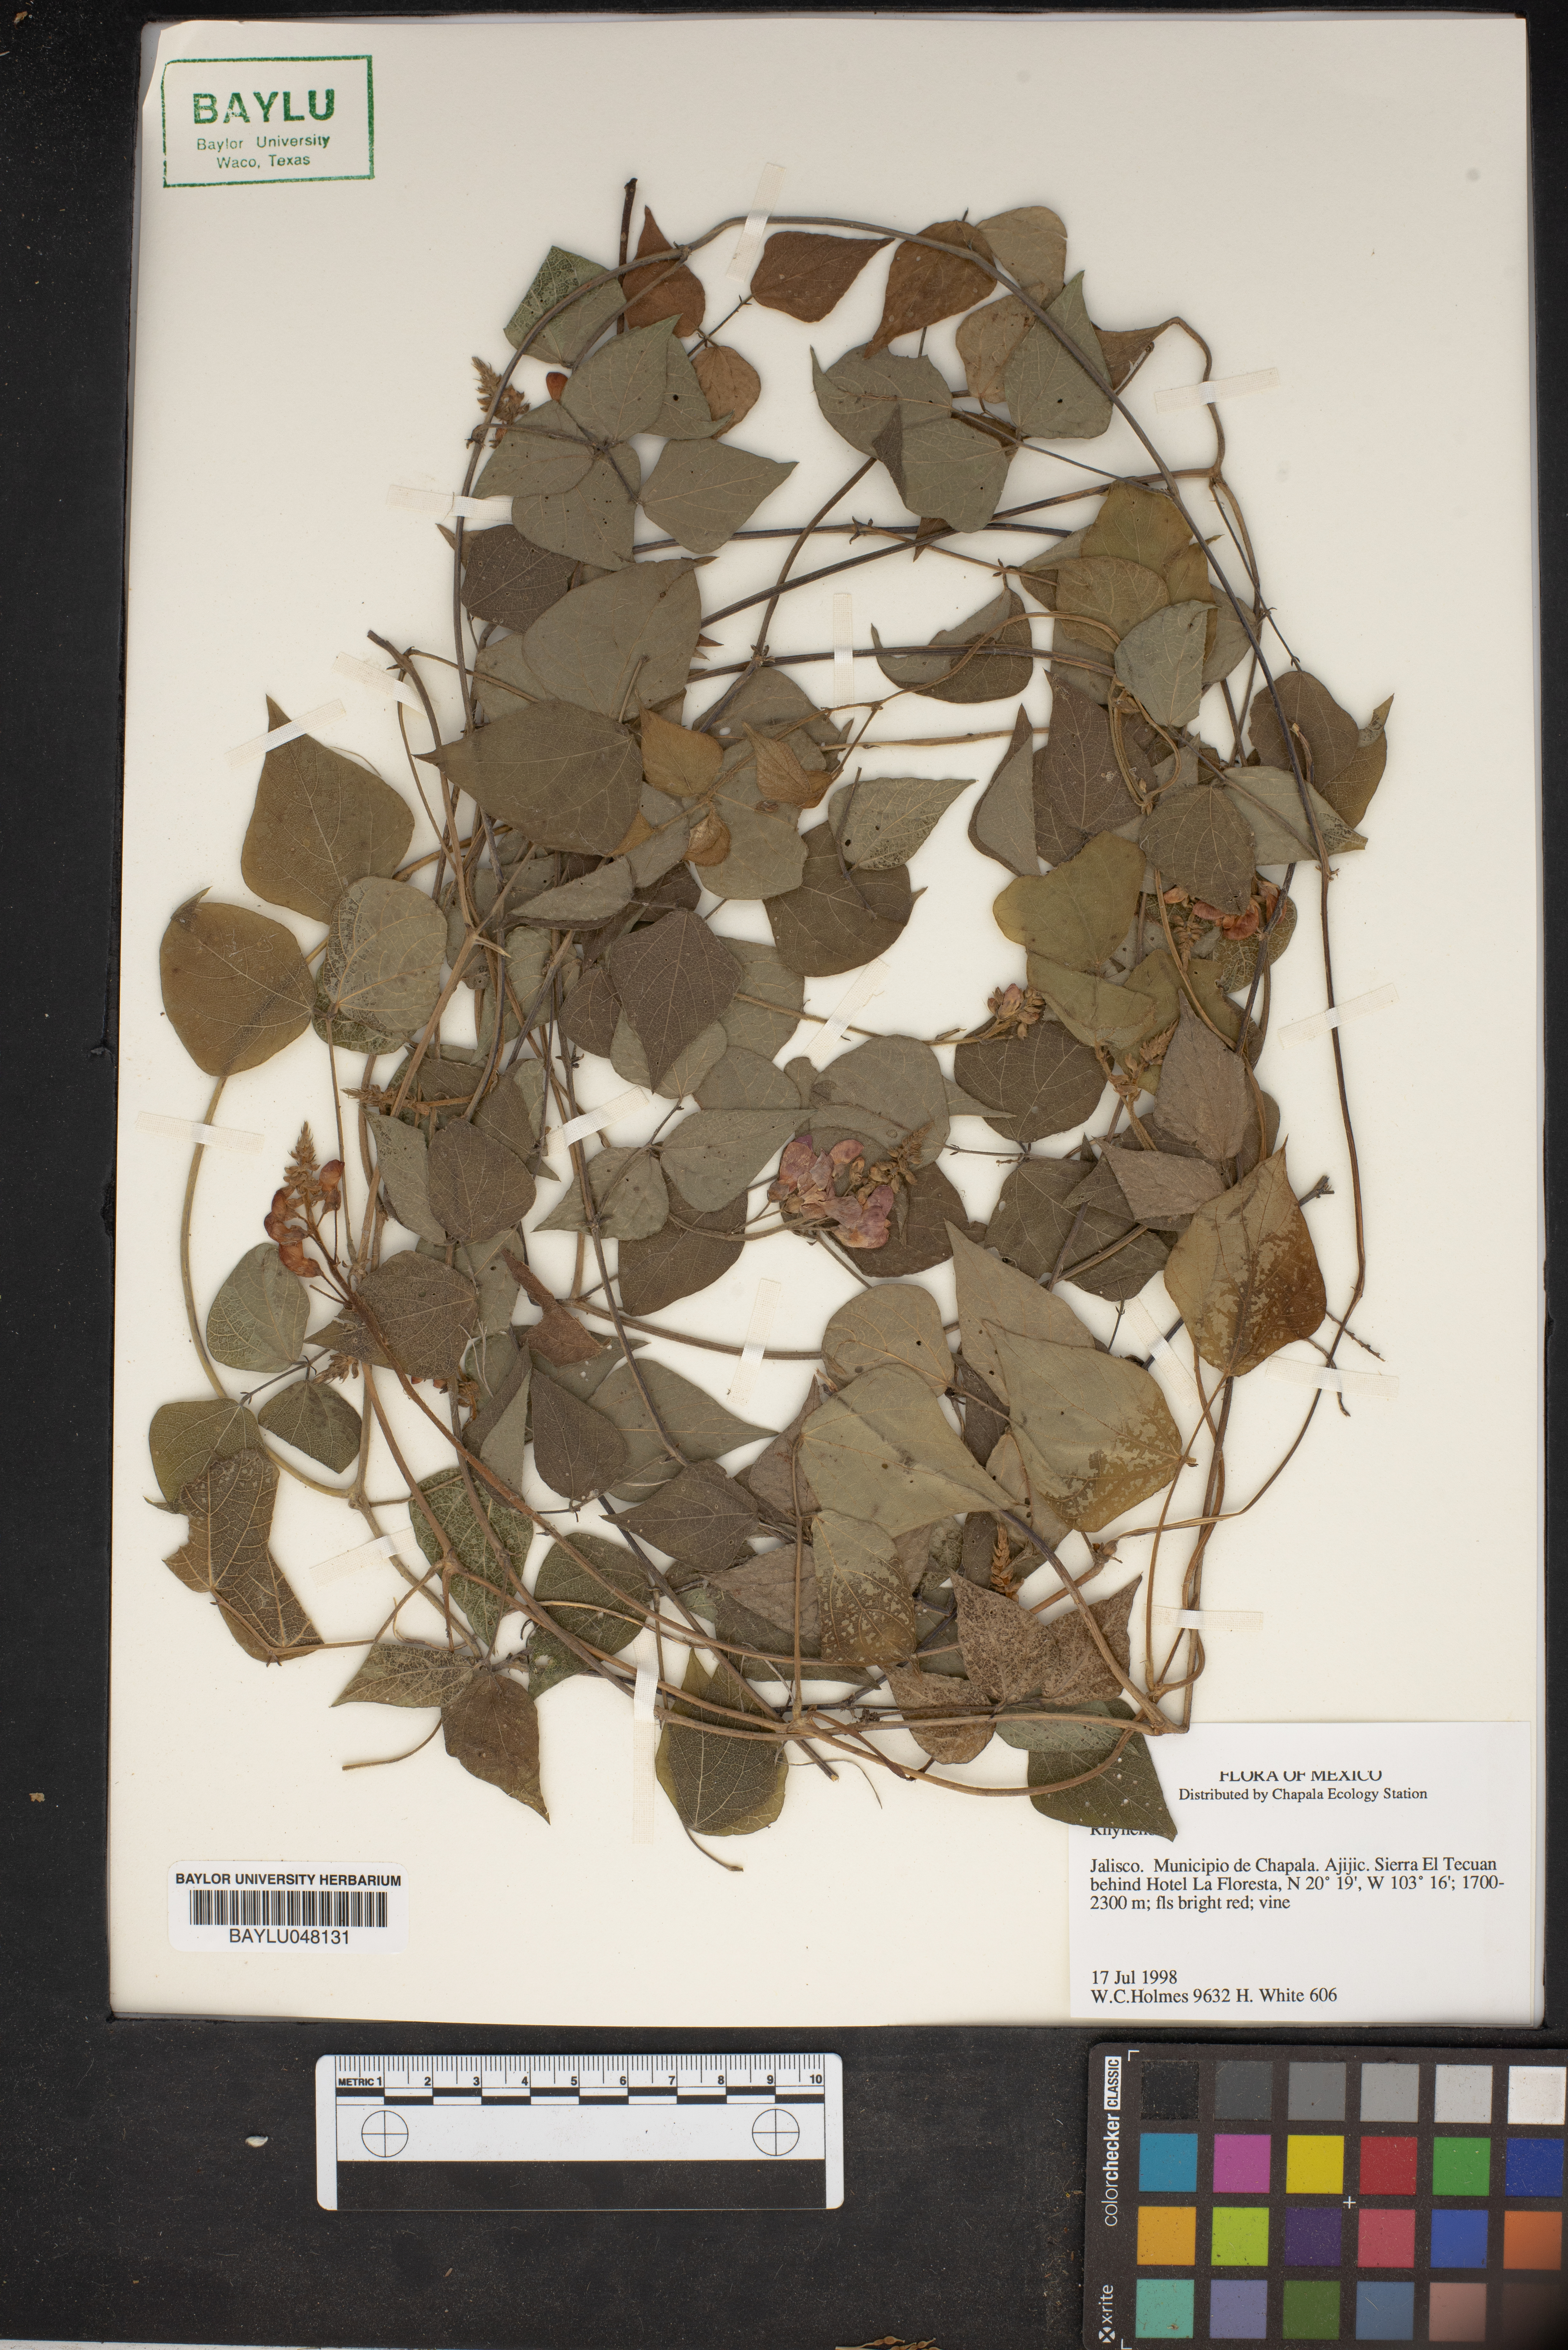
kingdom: Plantae
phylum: Tracheophyta
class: Magnoliopsida
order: Fabales
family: Fabaceae
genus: Rhynchosia
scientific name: Rhynchosia
